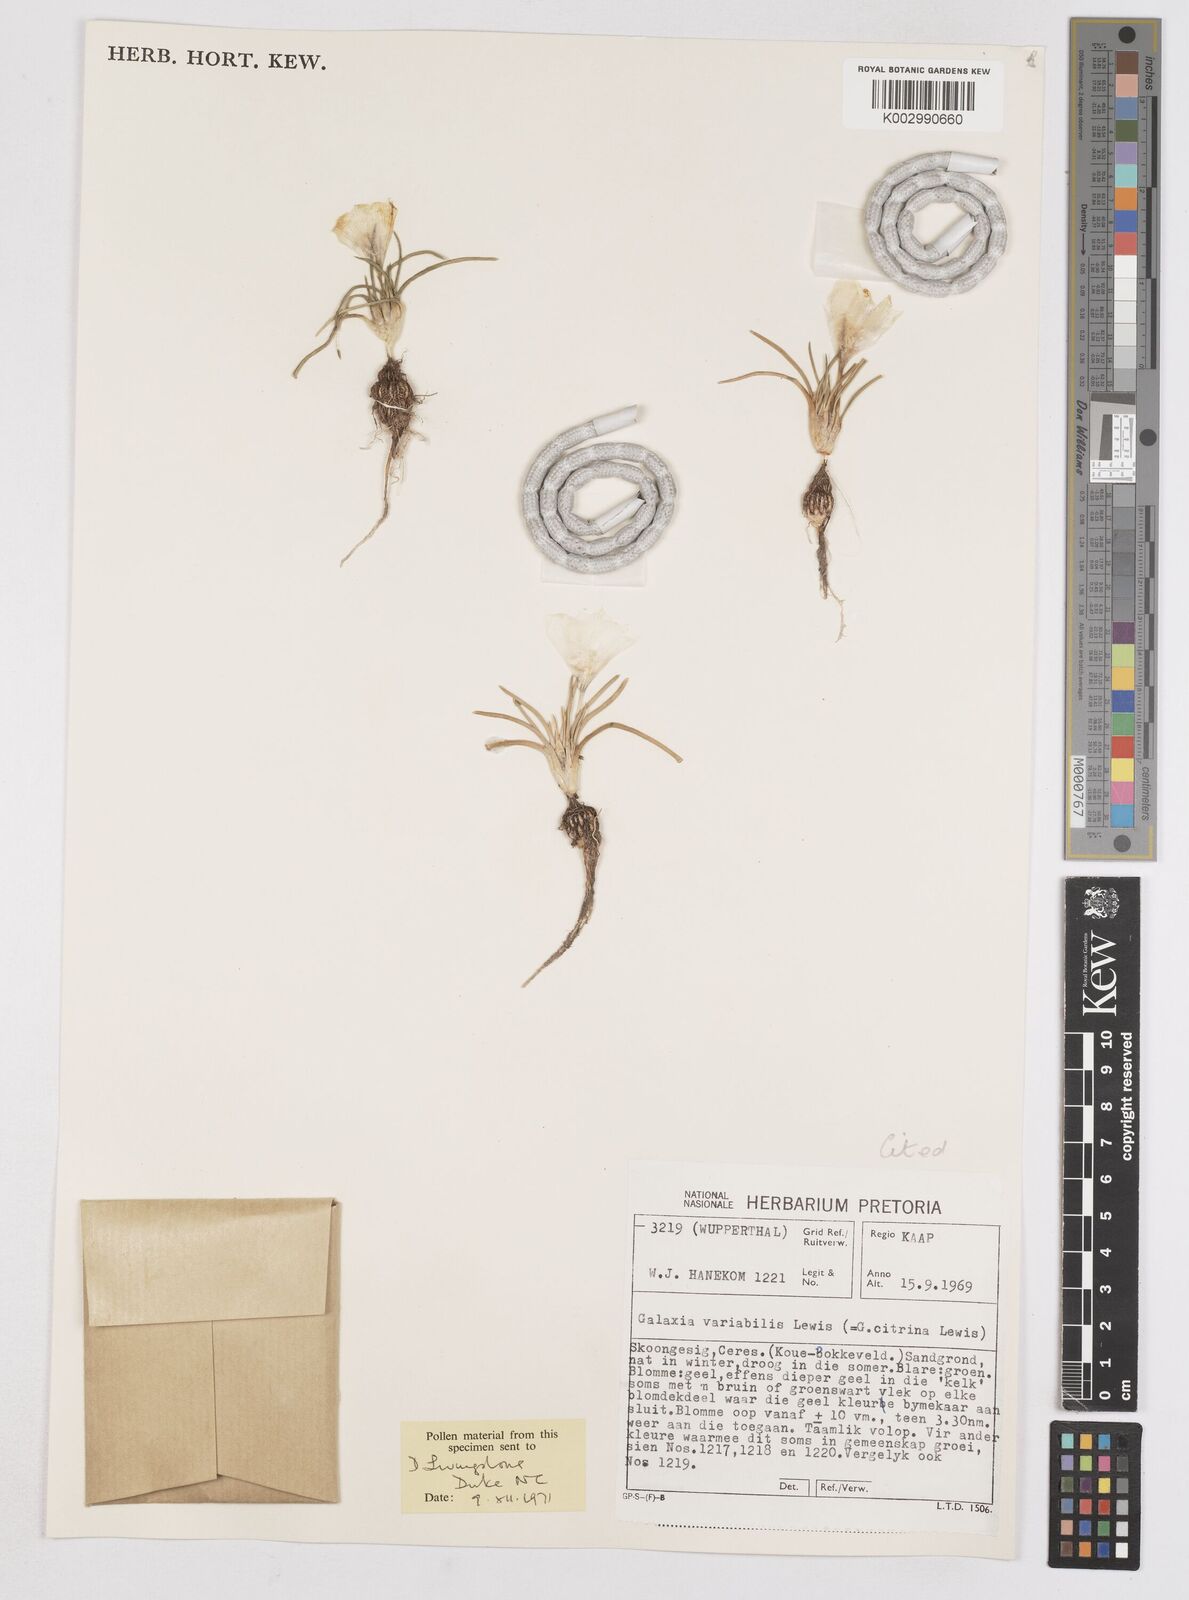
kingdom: Plantae
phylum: Tracheophyta
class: Liliopsida
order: Asparagales
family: Iridaceae
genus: Moraea
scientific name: Moraea variabilis
